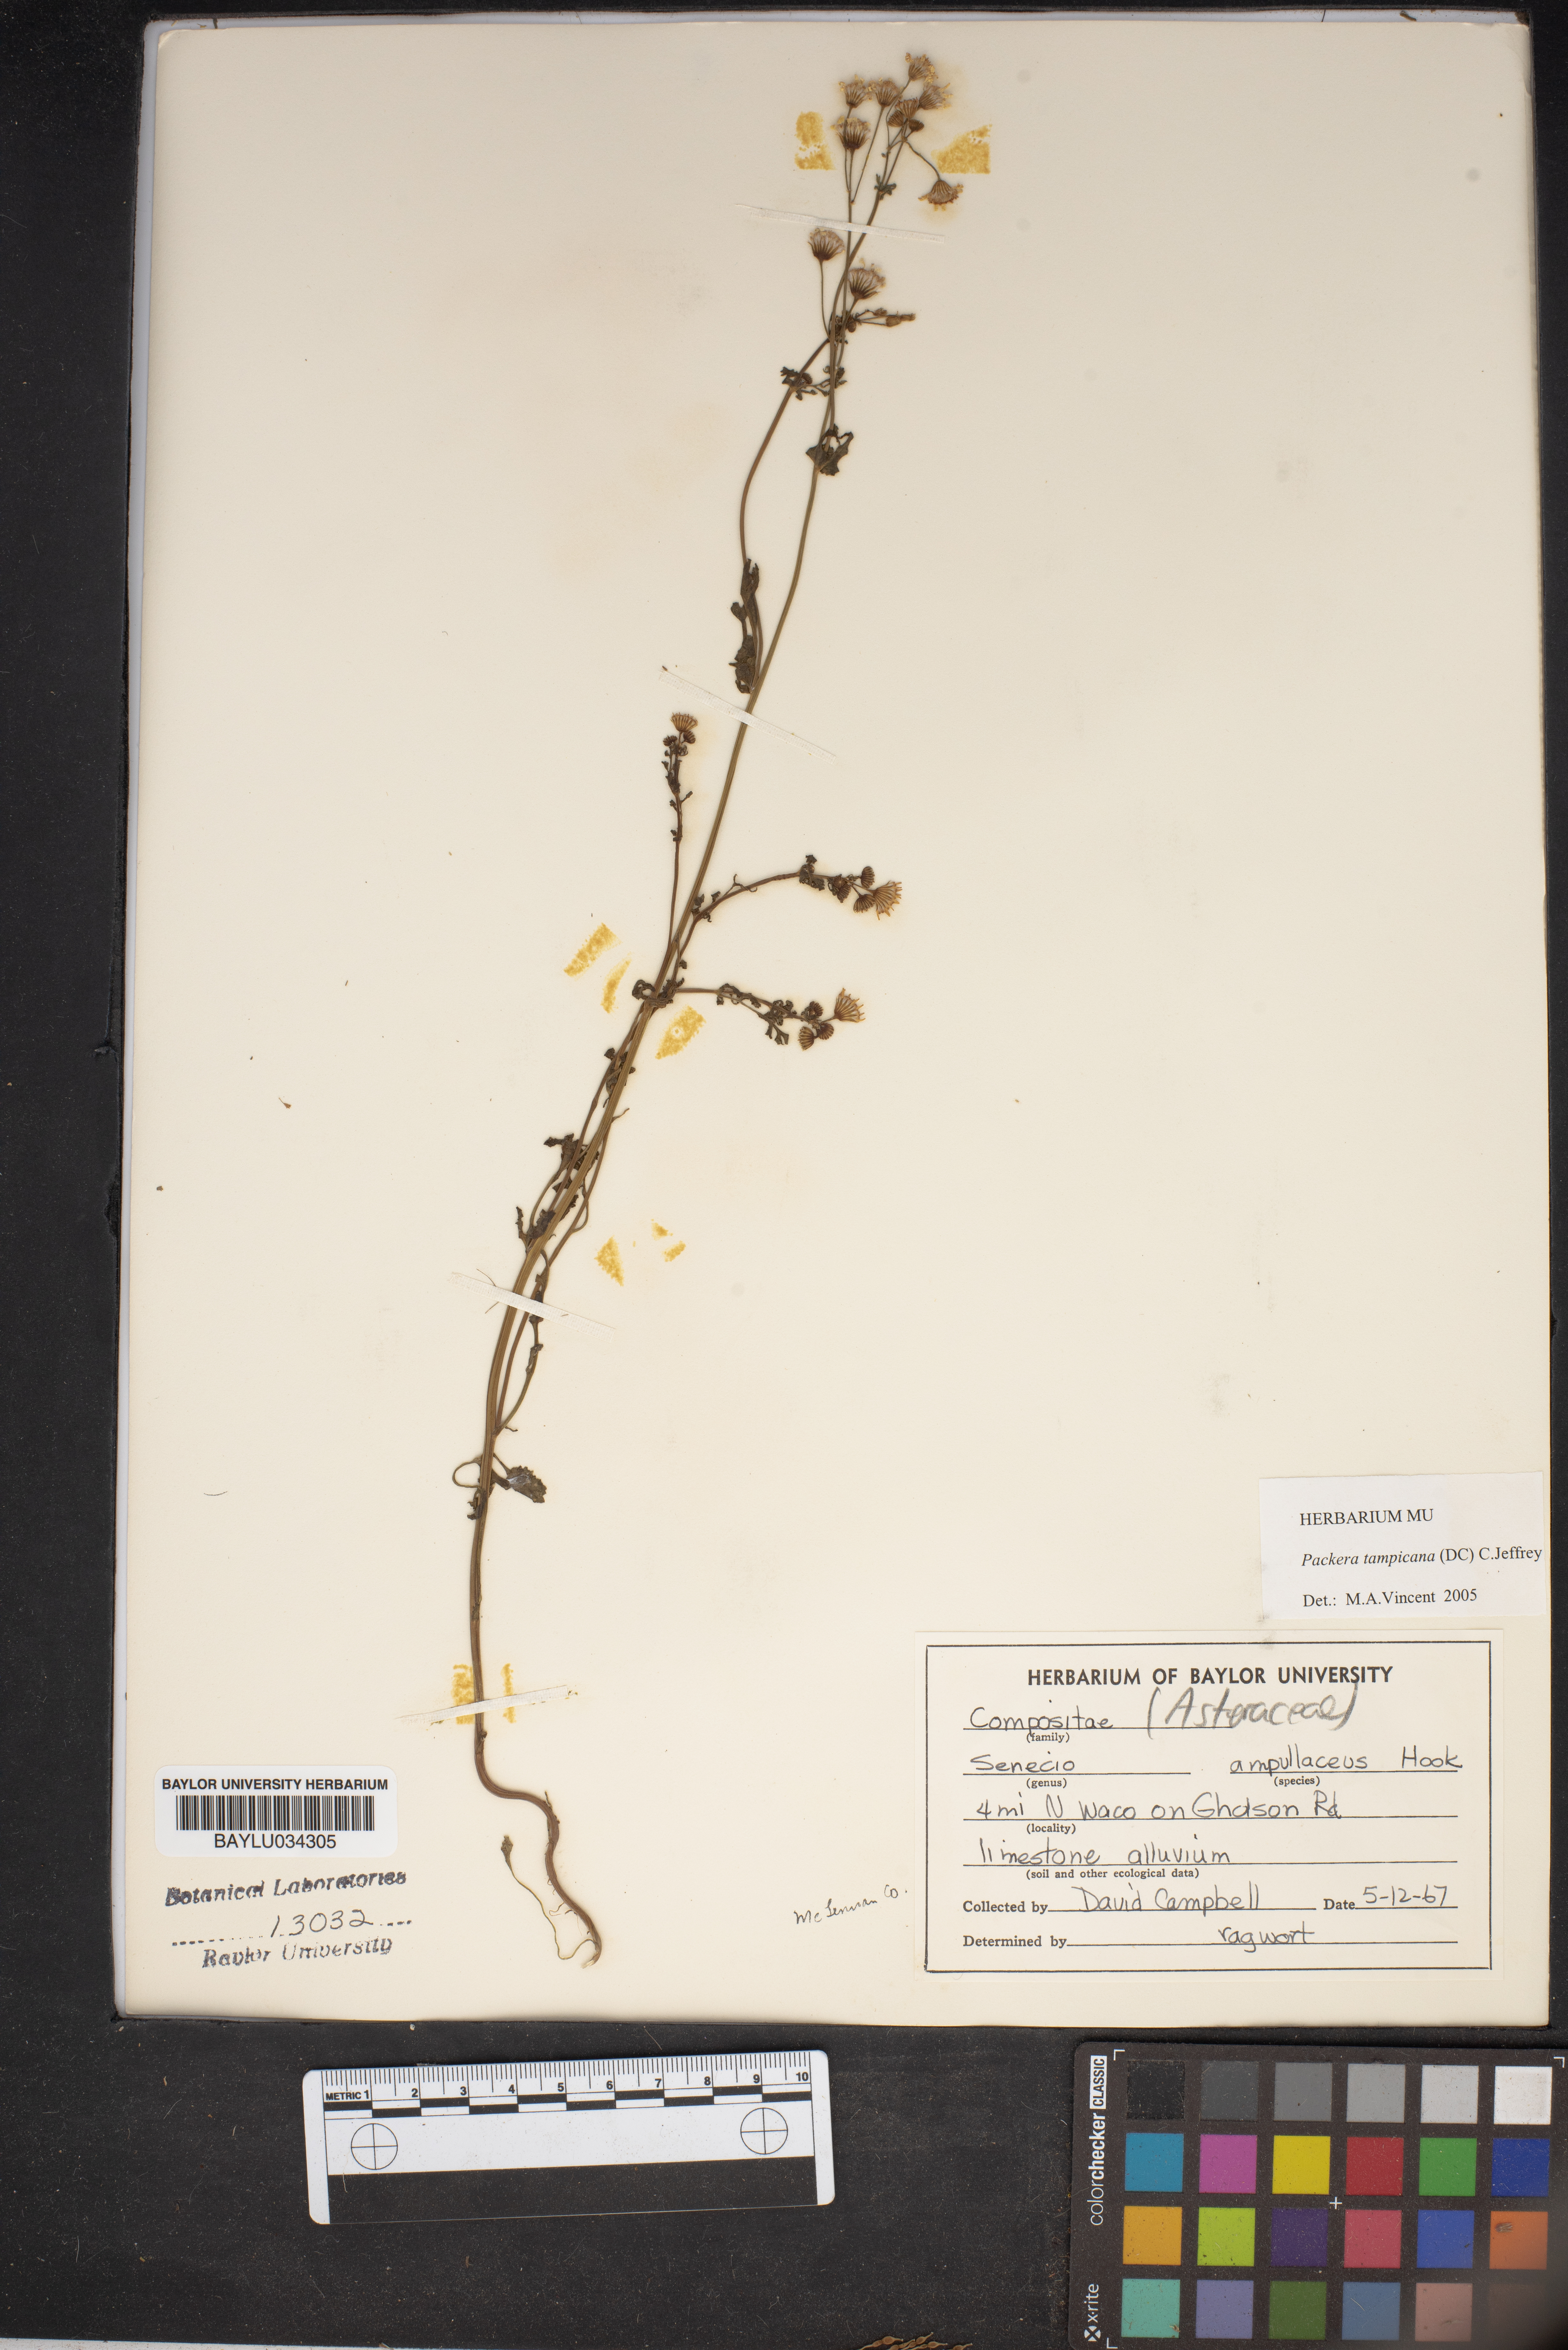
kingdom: Plantae
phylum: Tracheophyta
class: Magnoliopsida
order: Asterales
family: Asteraceae
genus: Packera
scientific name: Packera tampicana
